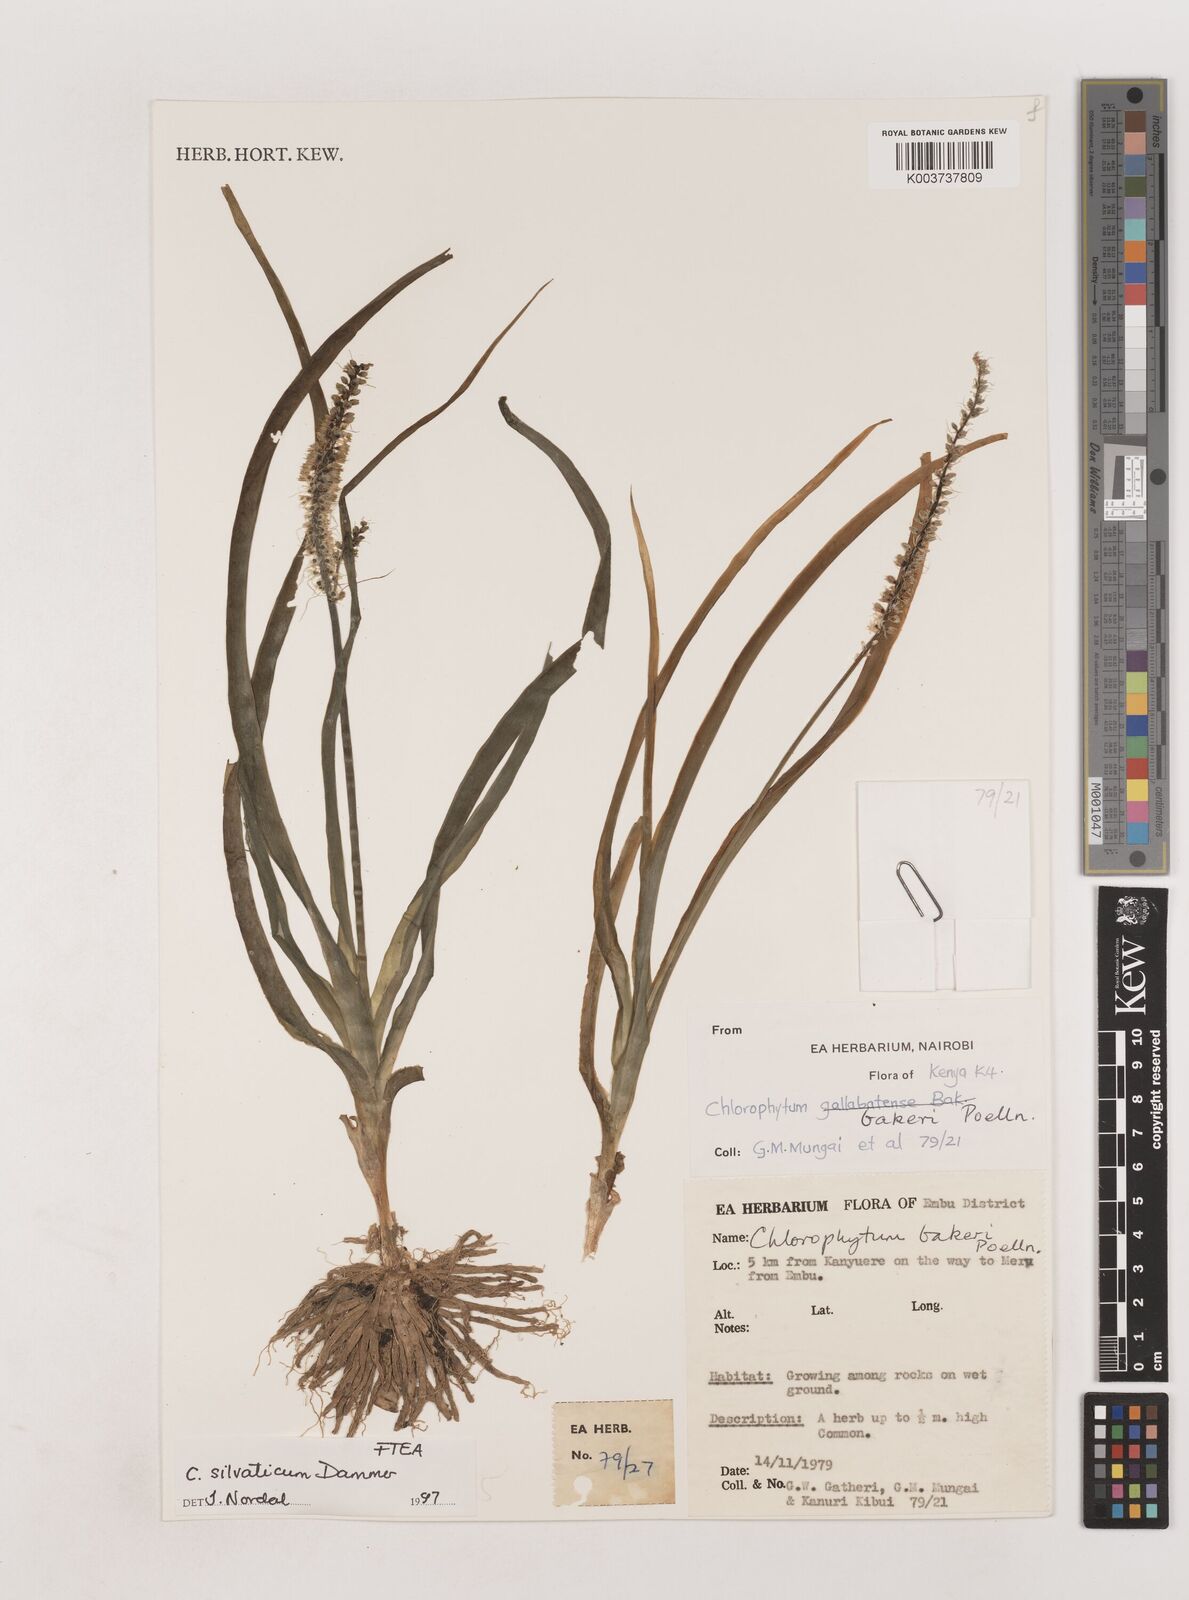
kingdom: Plantae
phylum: Tracheophyta
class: Liliopsida
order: Asparagales
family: Asparagaceae
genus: Chlorophytum
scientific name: Chlorophytum africanum
